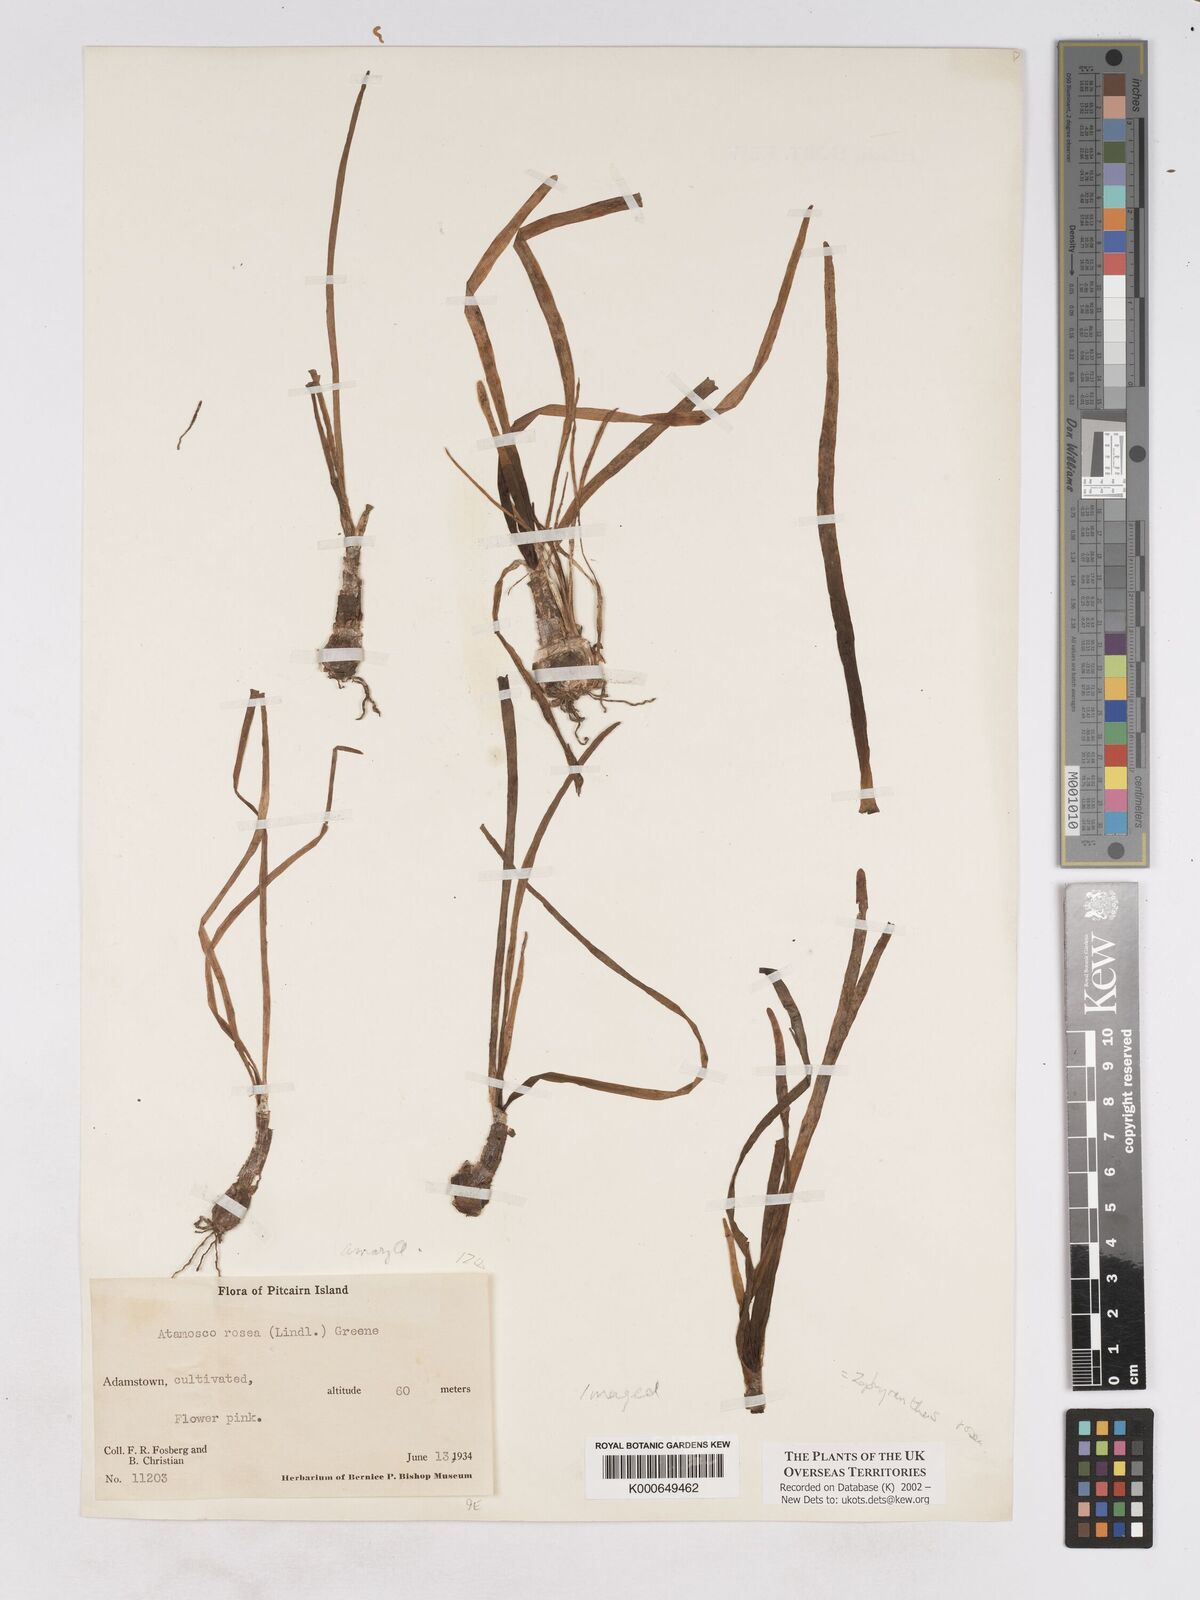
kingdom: Plantae
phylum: Tracheophyta
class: Liliopsida
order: Asparagales
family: Amaryllidaceae
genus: Zephyranthes
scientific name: Zephyranthes
